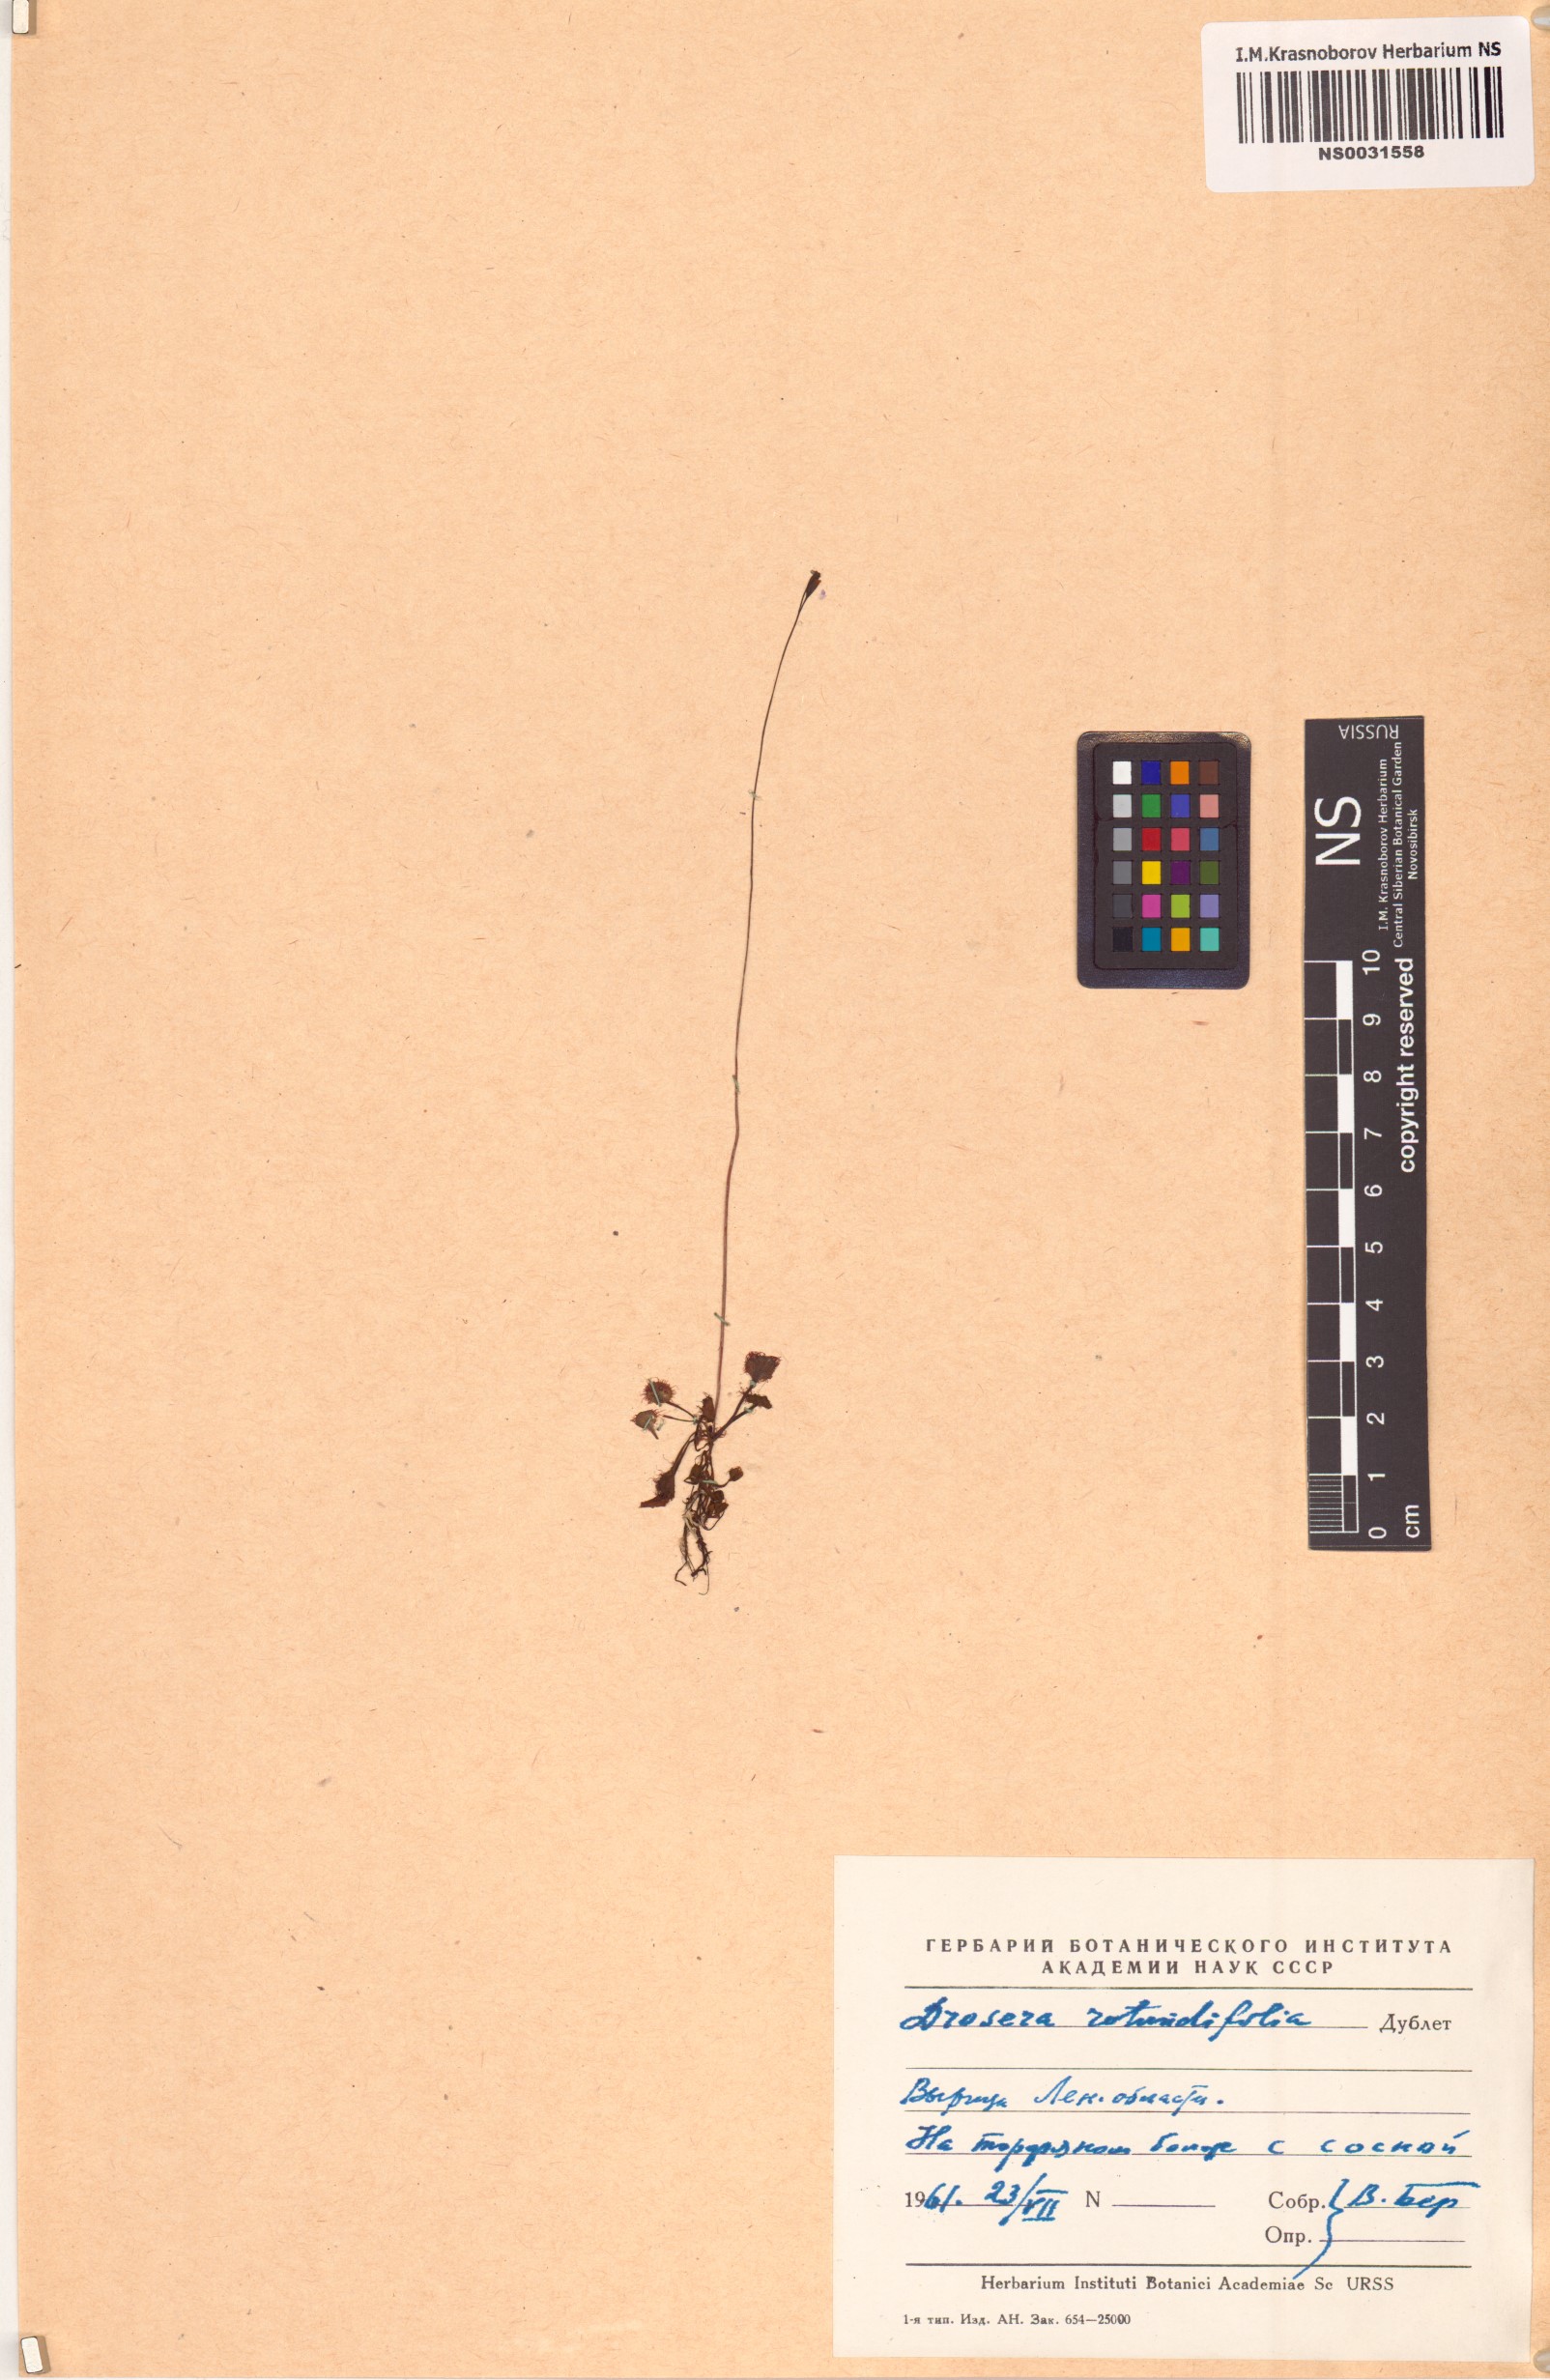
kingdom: Plantae
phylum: Tracheophyta
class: Magnoliopsida
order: Caryophyllales
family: Droseraceae
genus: Drosera
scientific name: Drosera rotundifolia
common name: Round-leaved sundew
